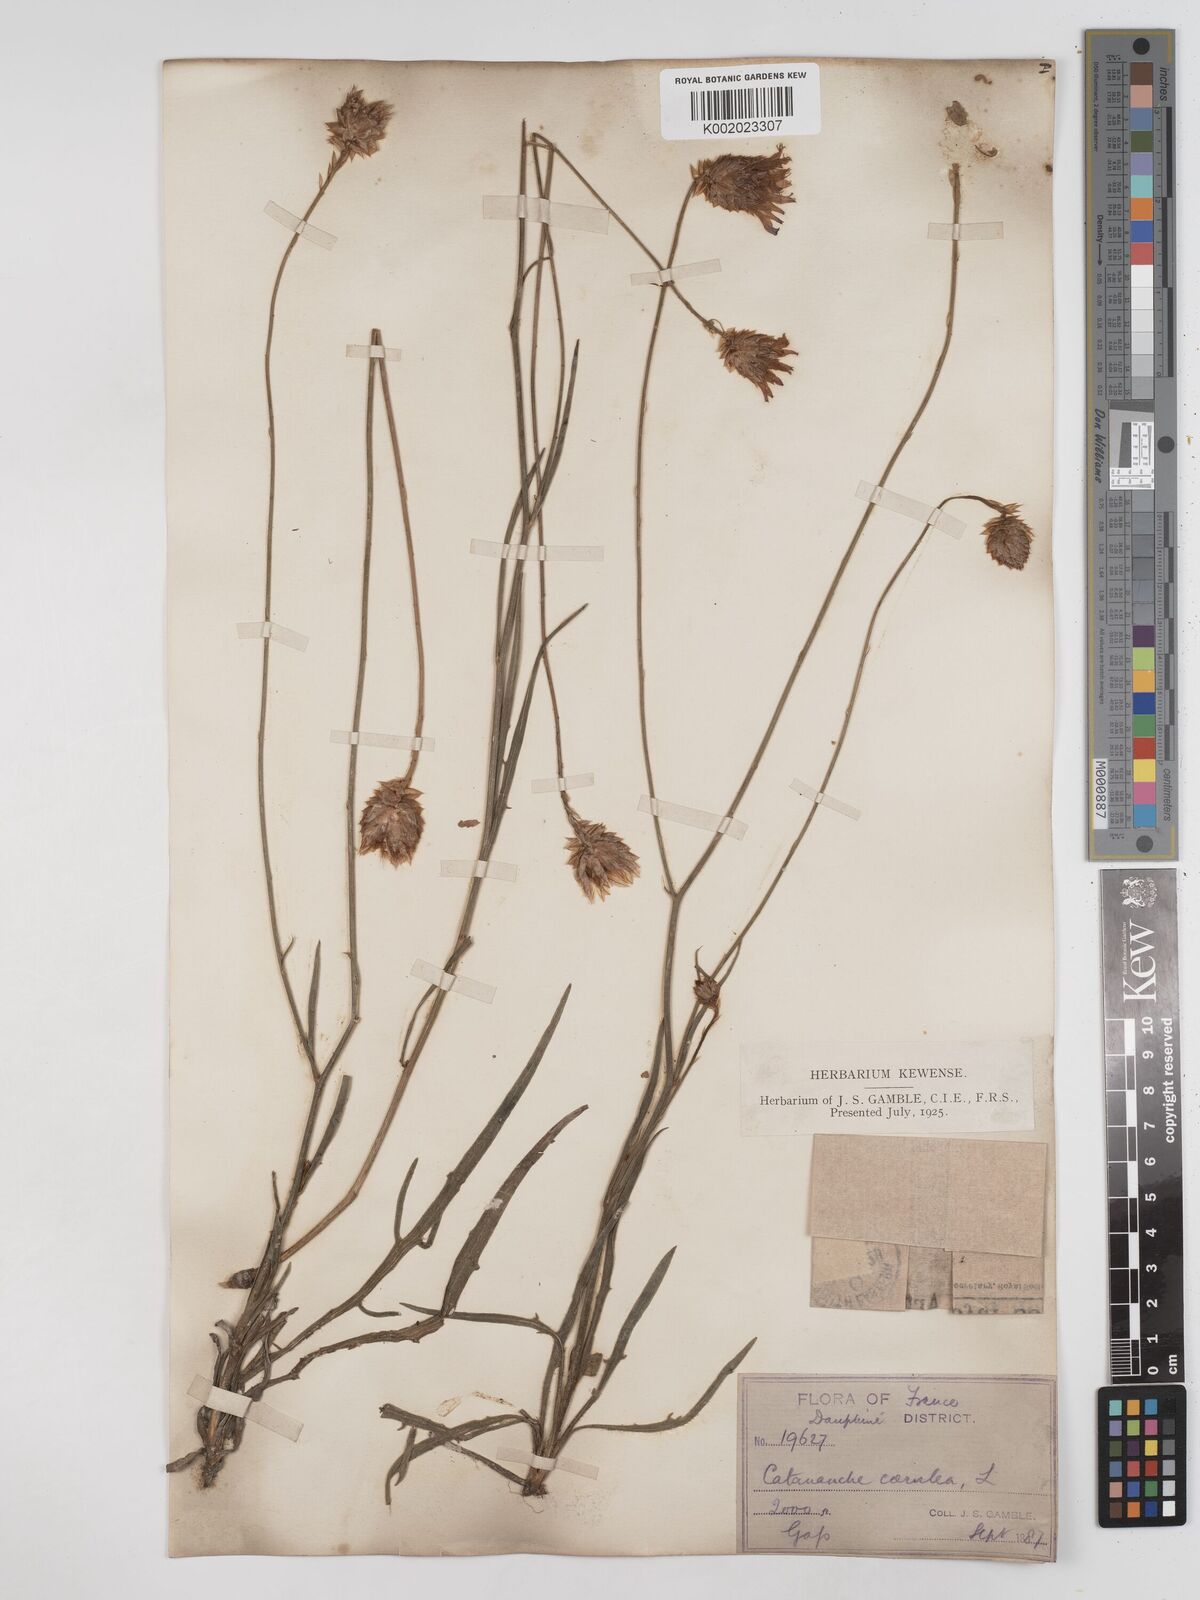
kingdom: Plantae
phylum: Tracheophyta
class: Magnoliopsida
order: Asterales
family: Asteraceae
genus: Catananche
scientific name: Catananche caerulea
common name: Blue cupidone
